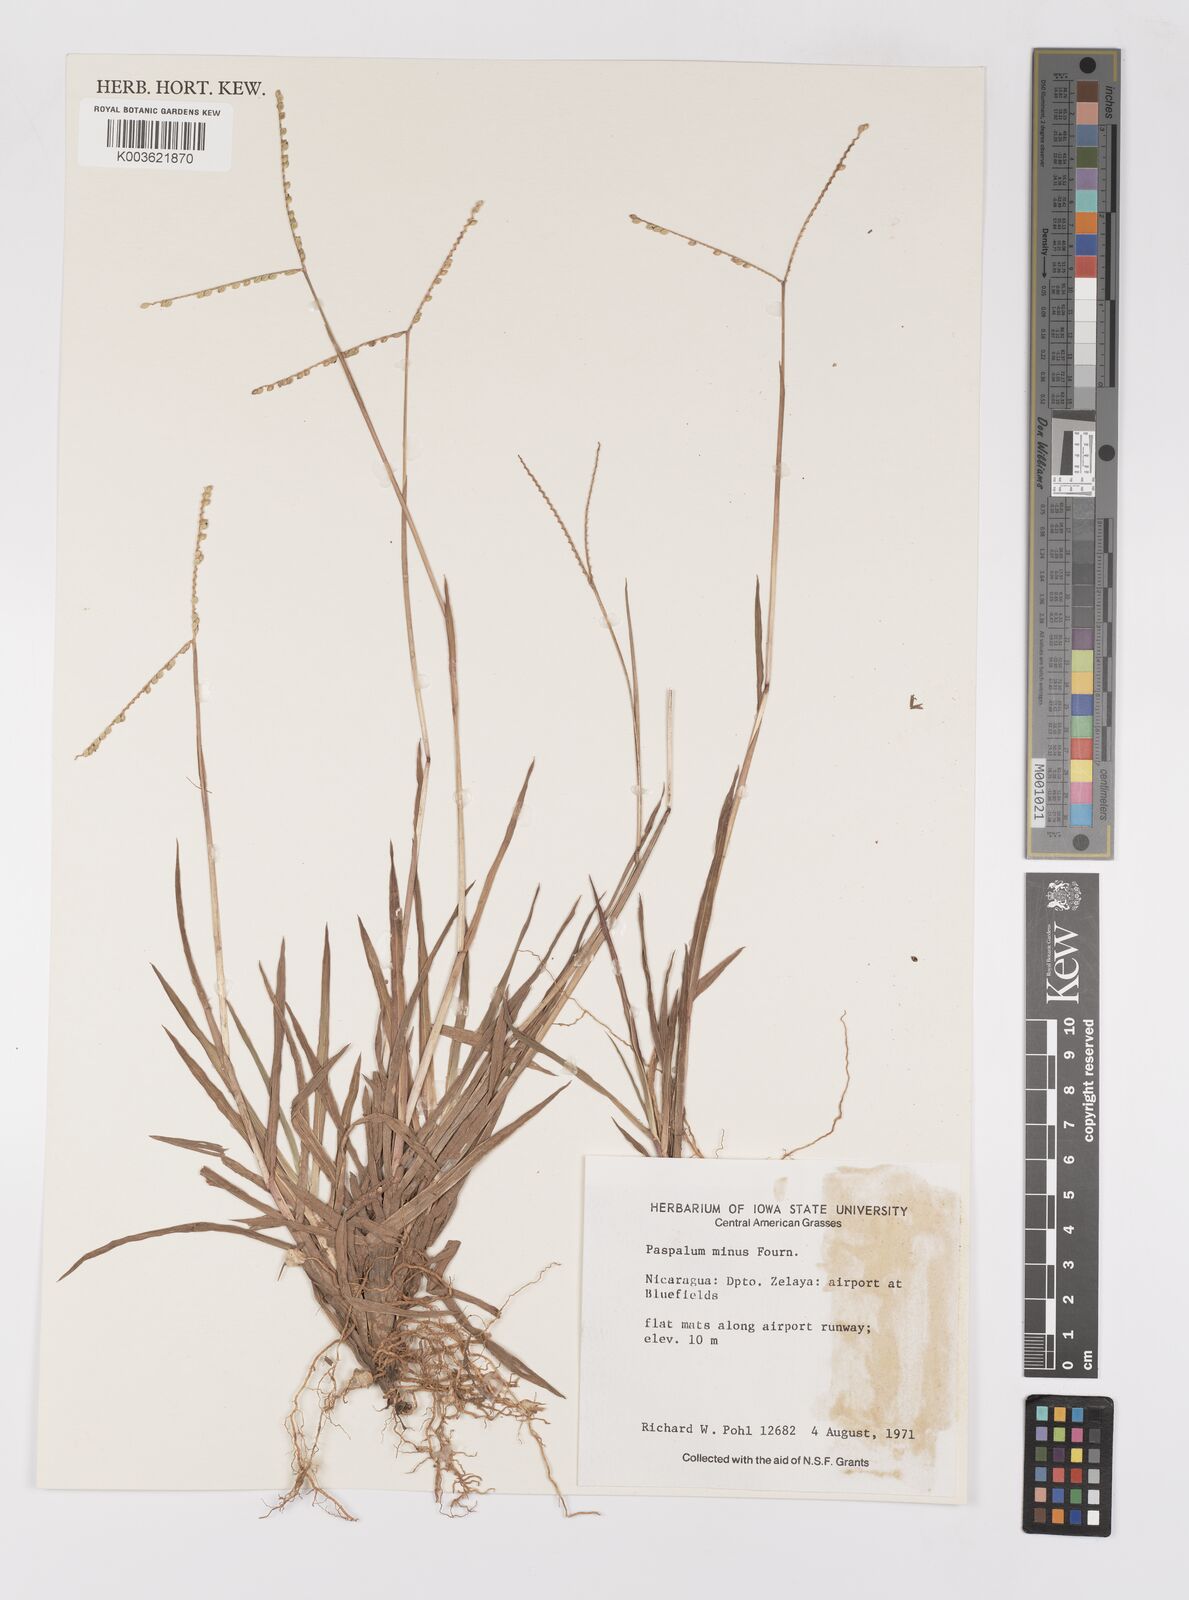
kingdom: Plantae
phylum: Tracheophyta
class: Liliopsida
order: Poales
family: Poaceae
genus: Paspalum
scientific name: Paspalum minus
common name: Matted paspalum
